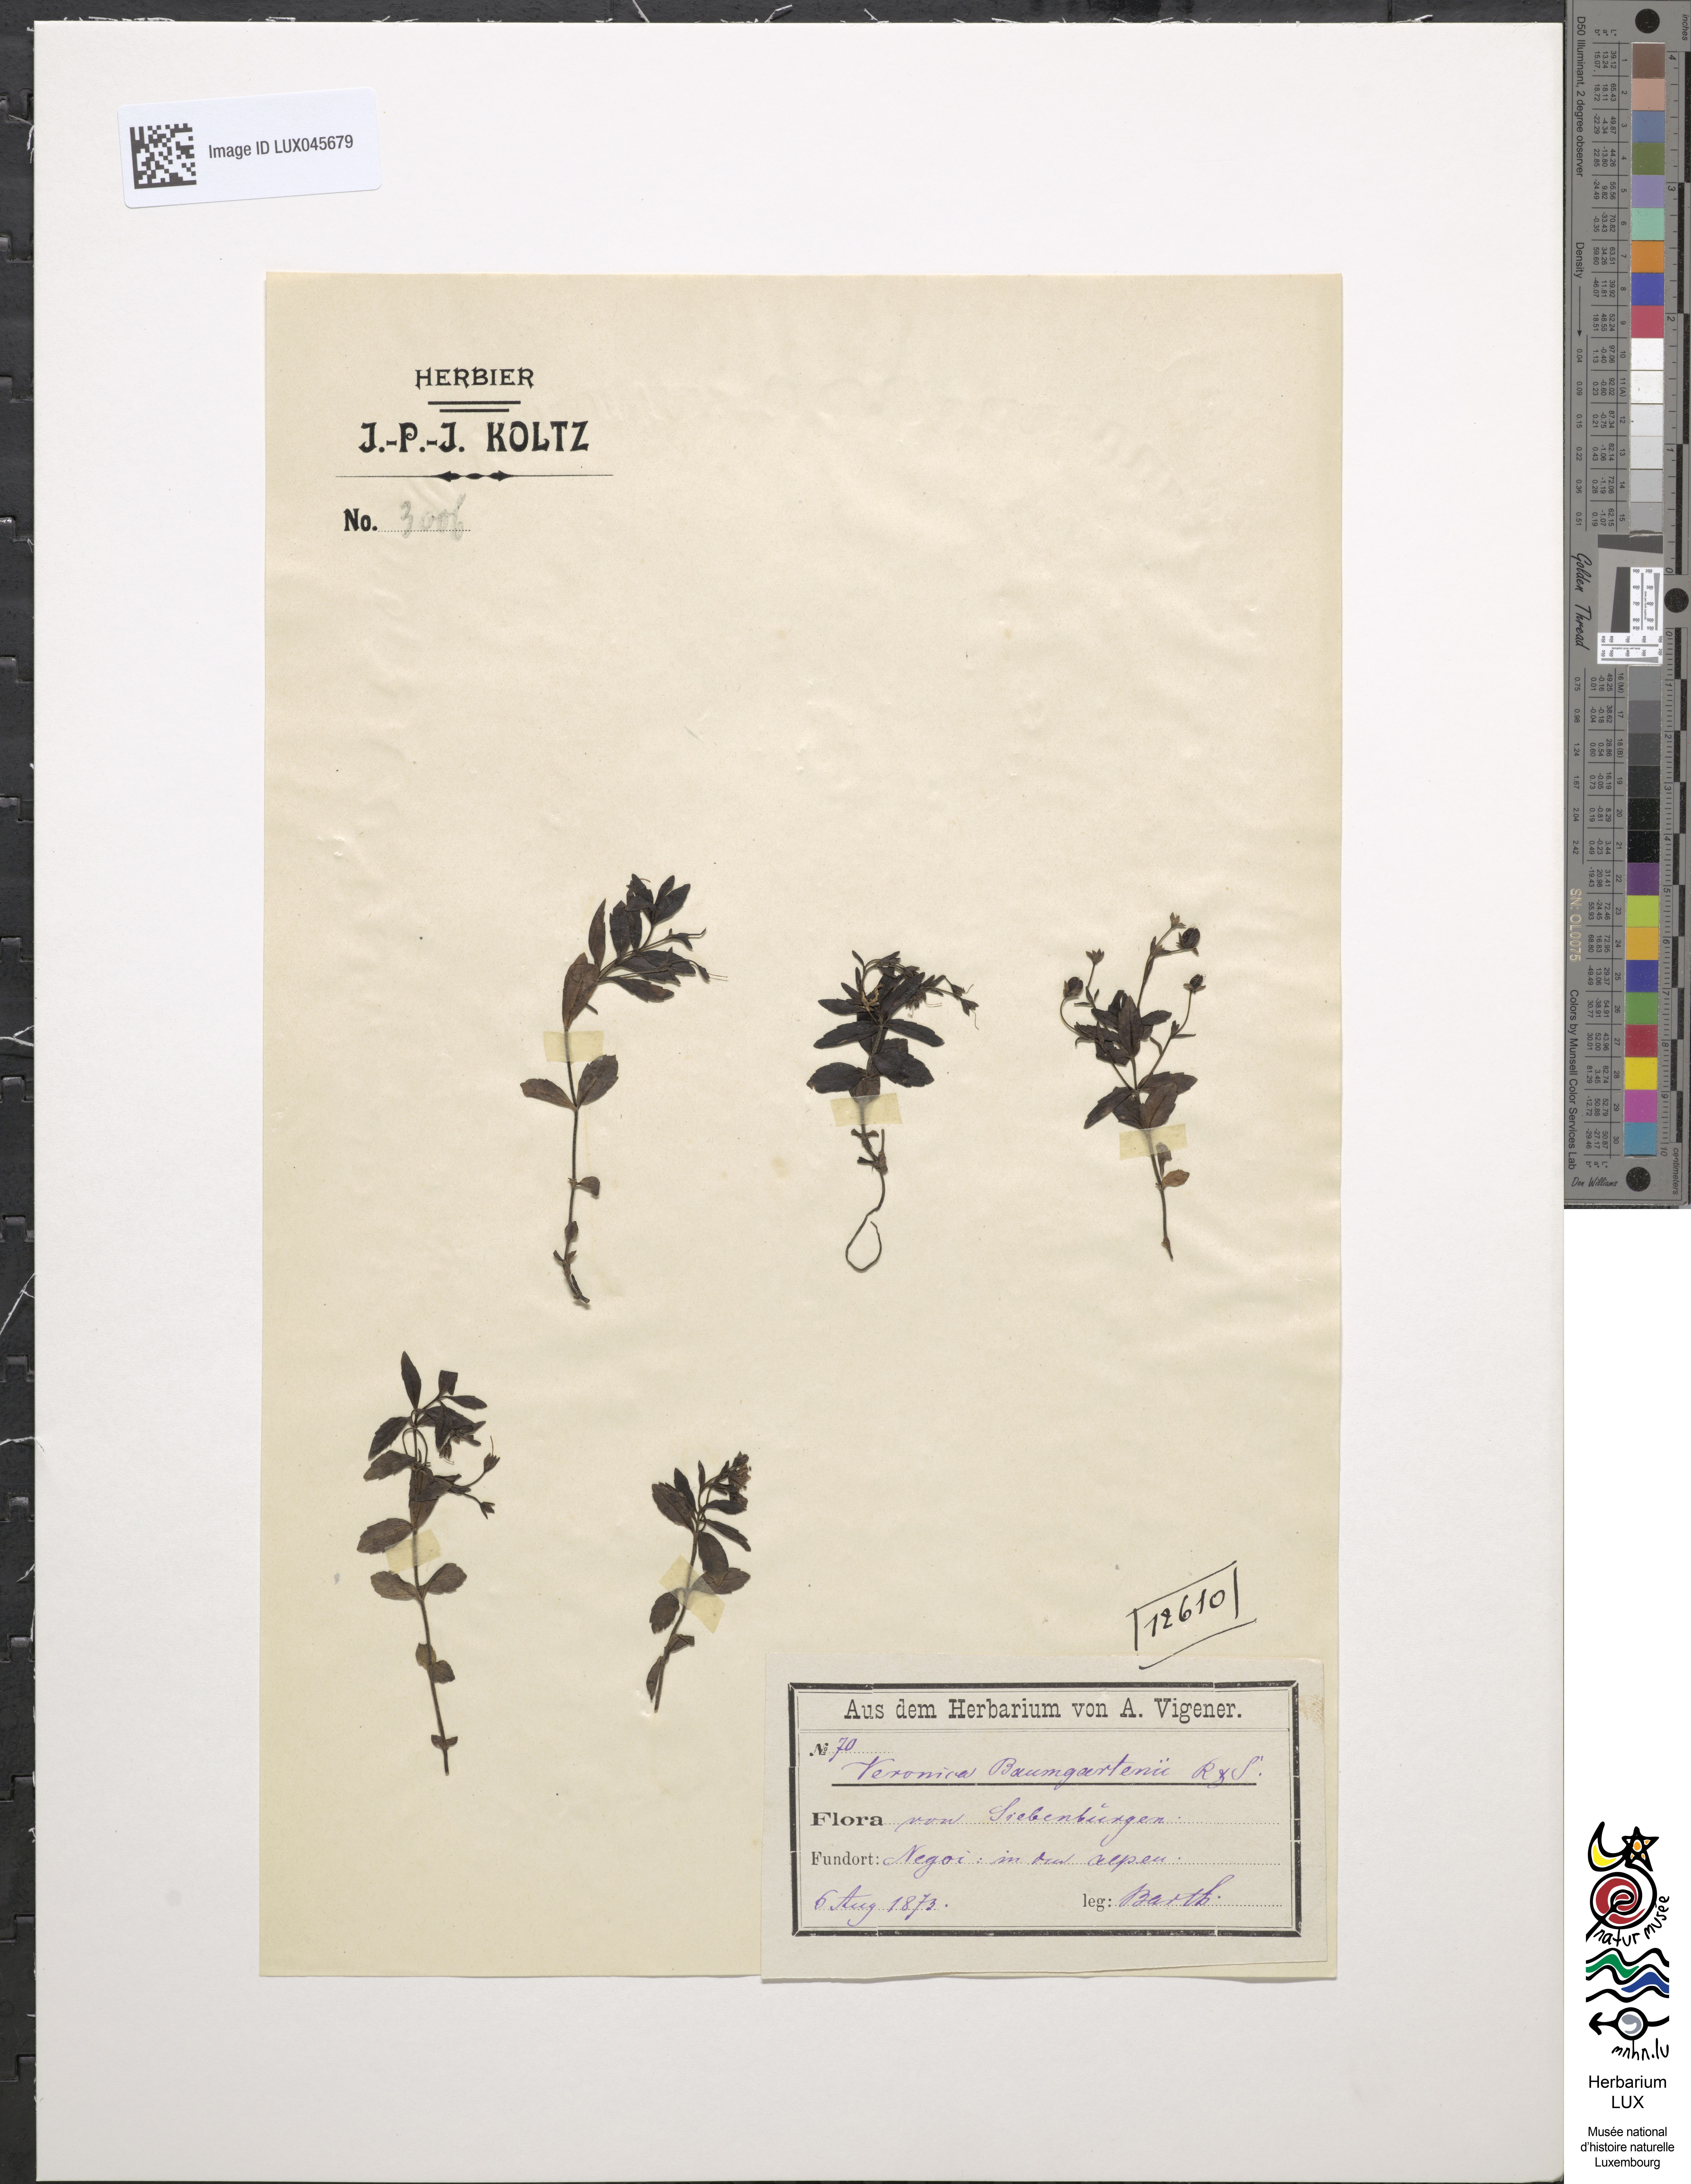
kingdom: Plantae
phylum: Tracheophyta
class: Magnoliopsida
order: Lamiales
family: Plantaginaceae
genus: Veronica
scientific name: Veronica baumgartenii
